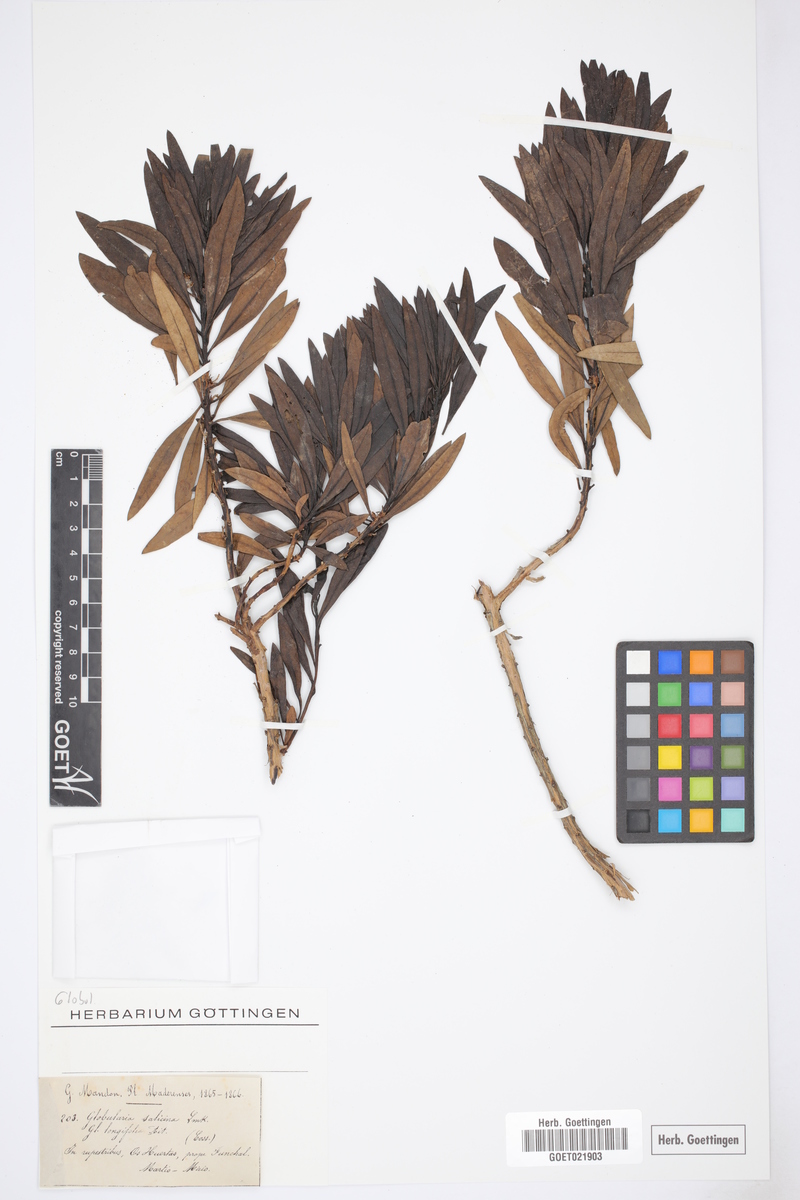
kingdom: Plantae
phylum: Tracheophyta
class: Magnoliopsida
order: Lamiales
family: Plantaginaceae
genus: Globularia
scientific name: Globularia salicina
